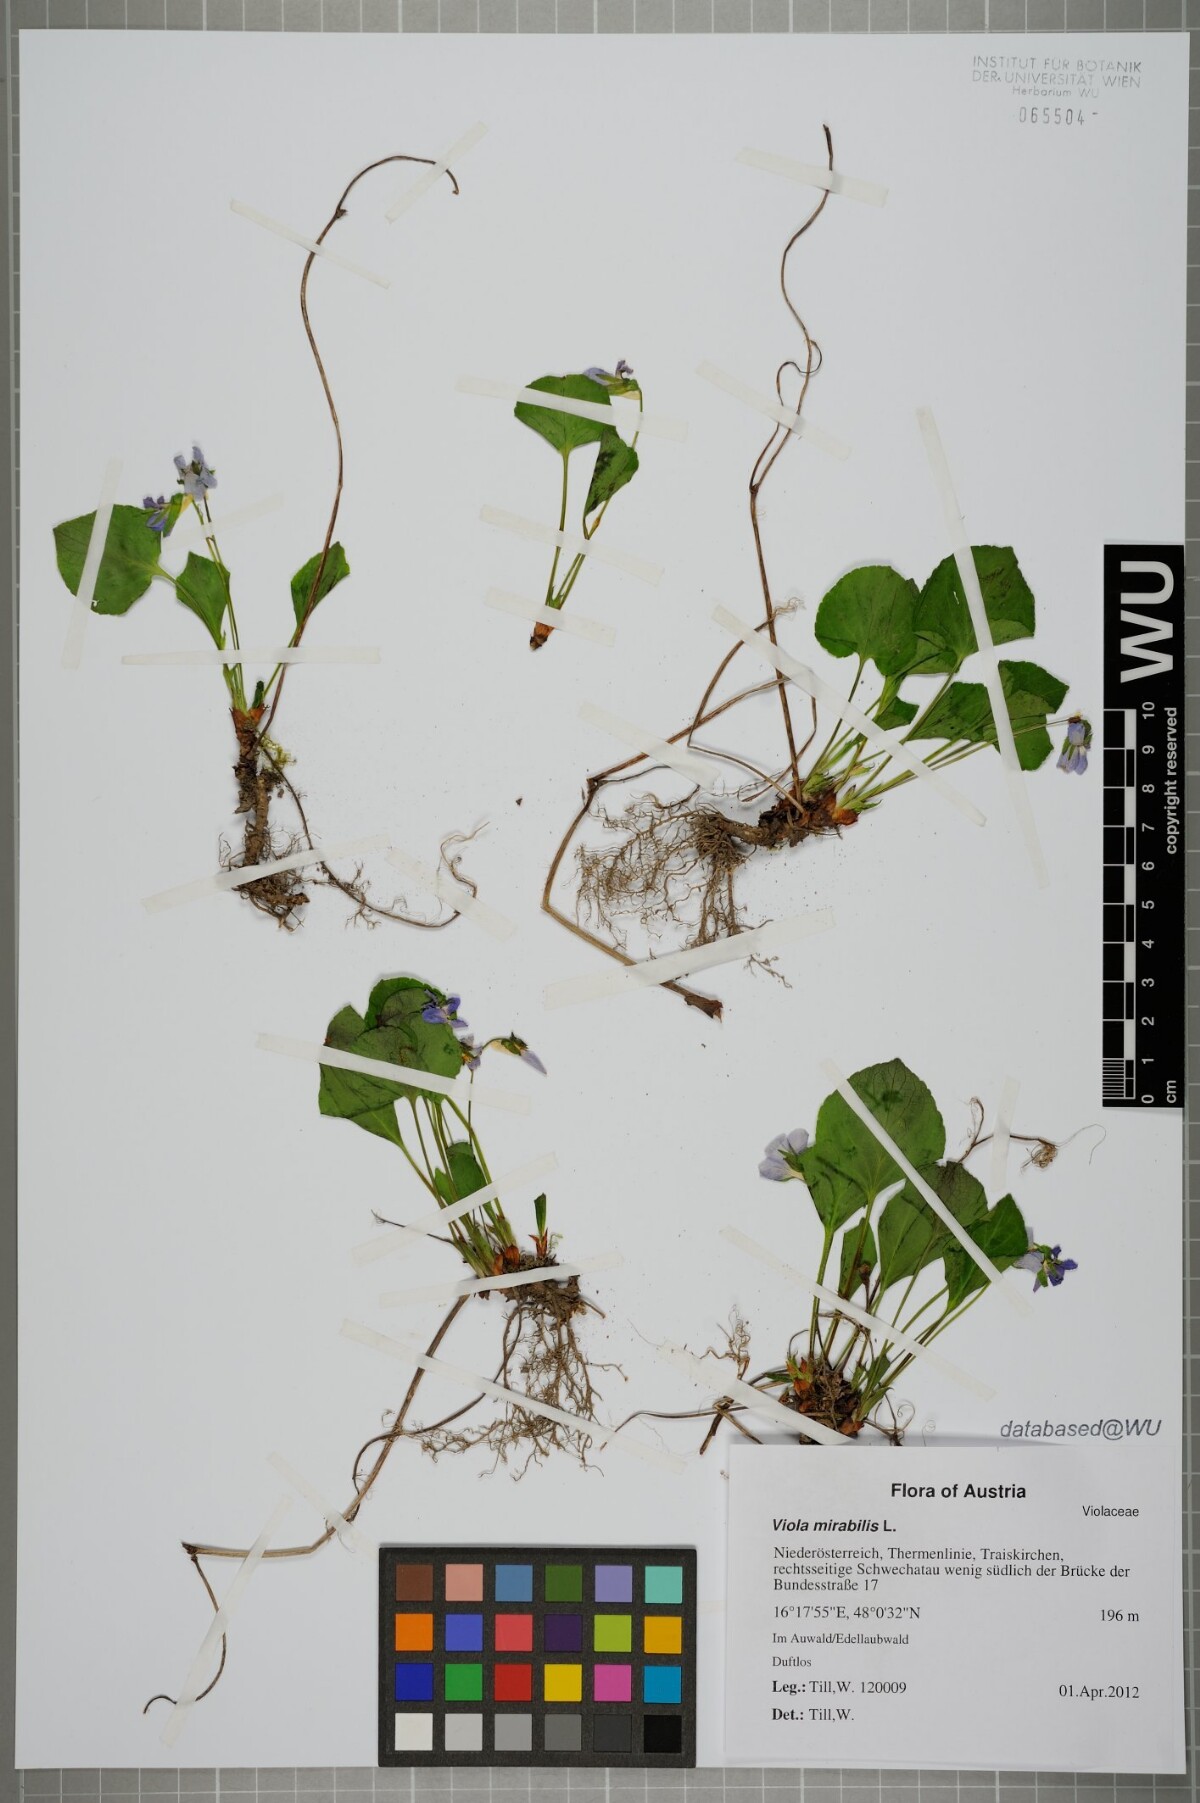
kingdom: Plantae
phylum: Tracheophyta
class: Magnoliopsida
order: Malpighiales
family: Violaceae
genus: Viola
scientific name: Viola mirabilis
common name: Wonder violet
